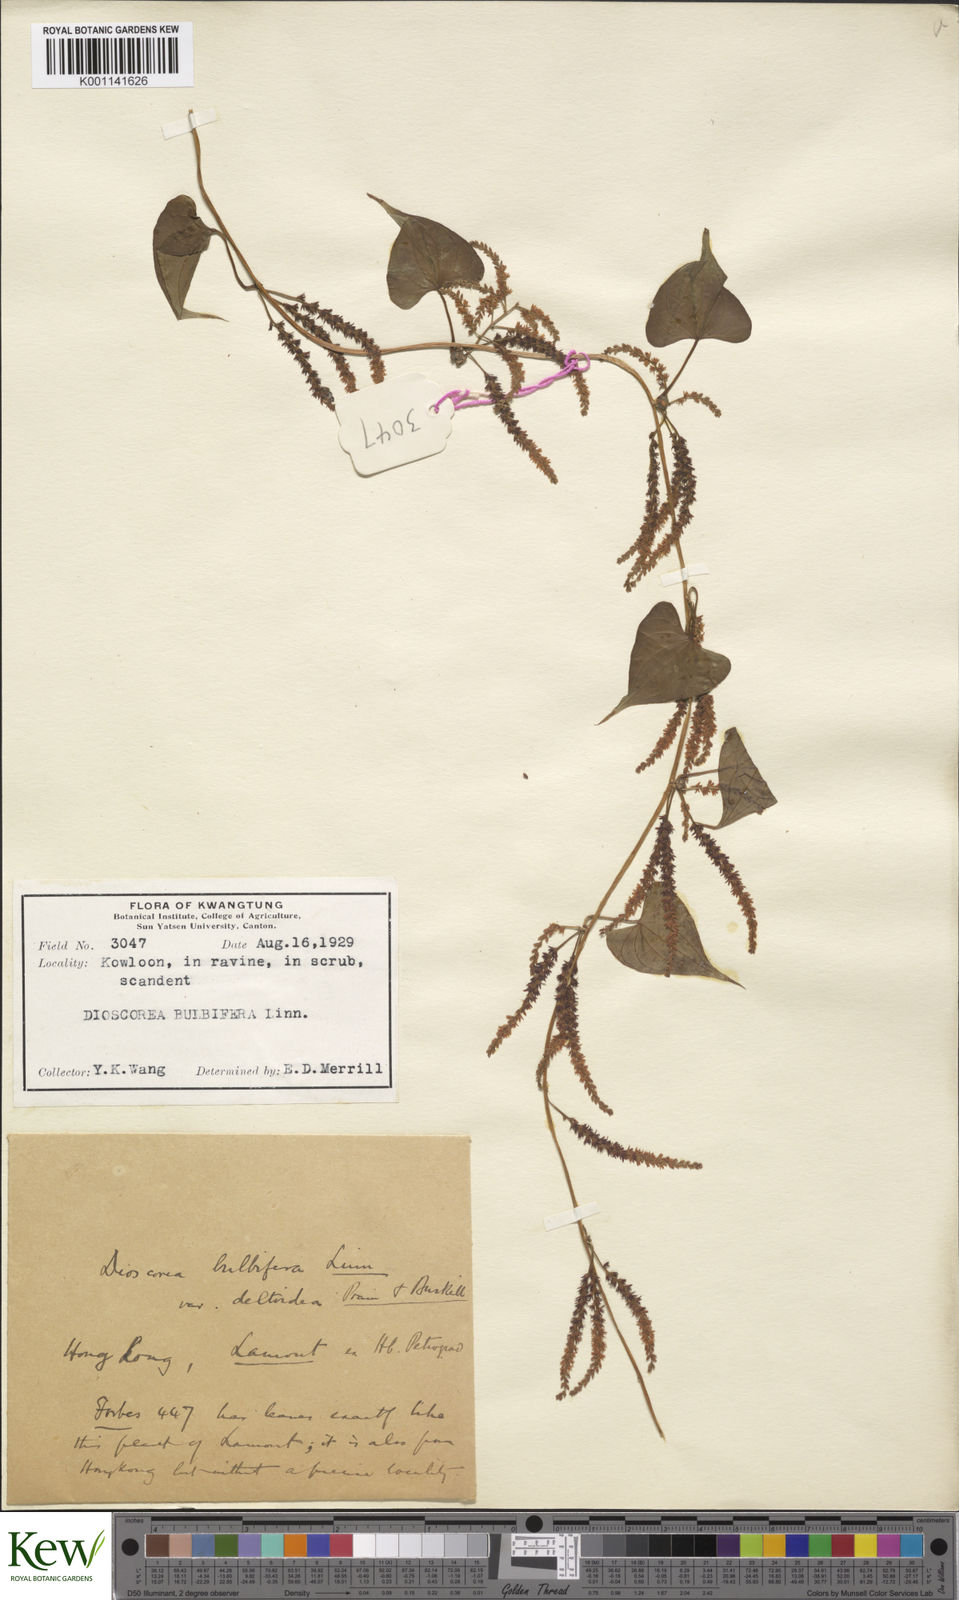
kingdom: Plantae
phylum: Tracheophyta
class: Liliopsida
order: Dioscoreales
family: Dioscoreaceae
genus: Dioscorea
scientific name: Dioscorea bulbifera
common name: Air yam
